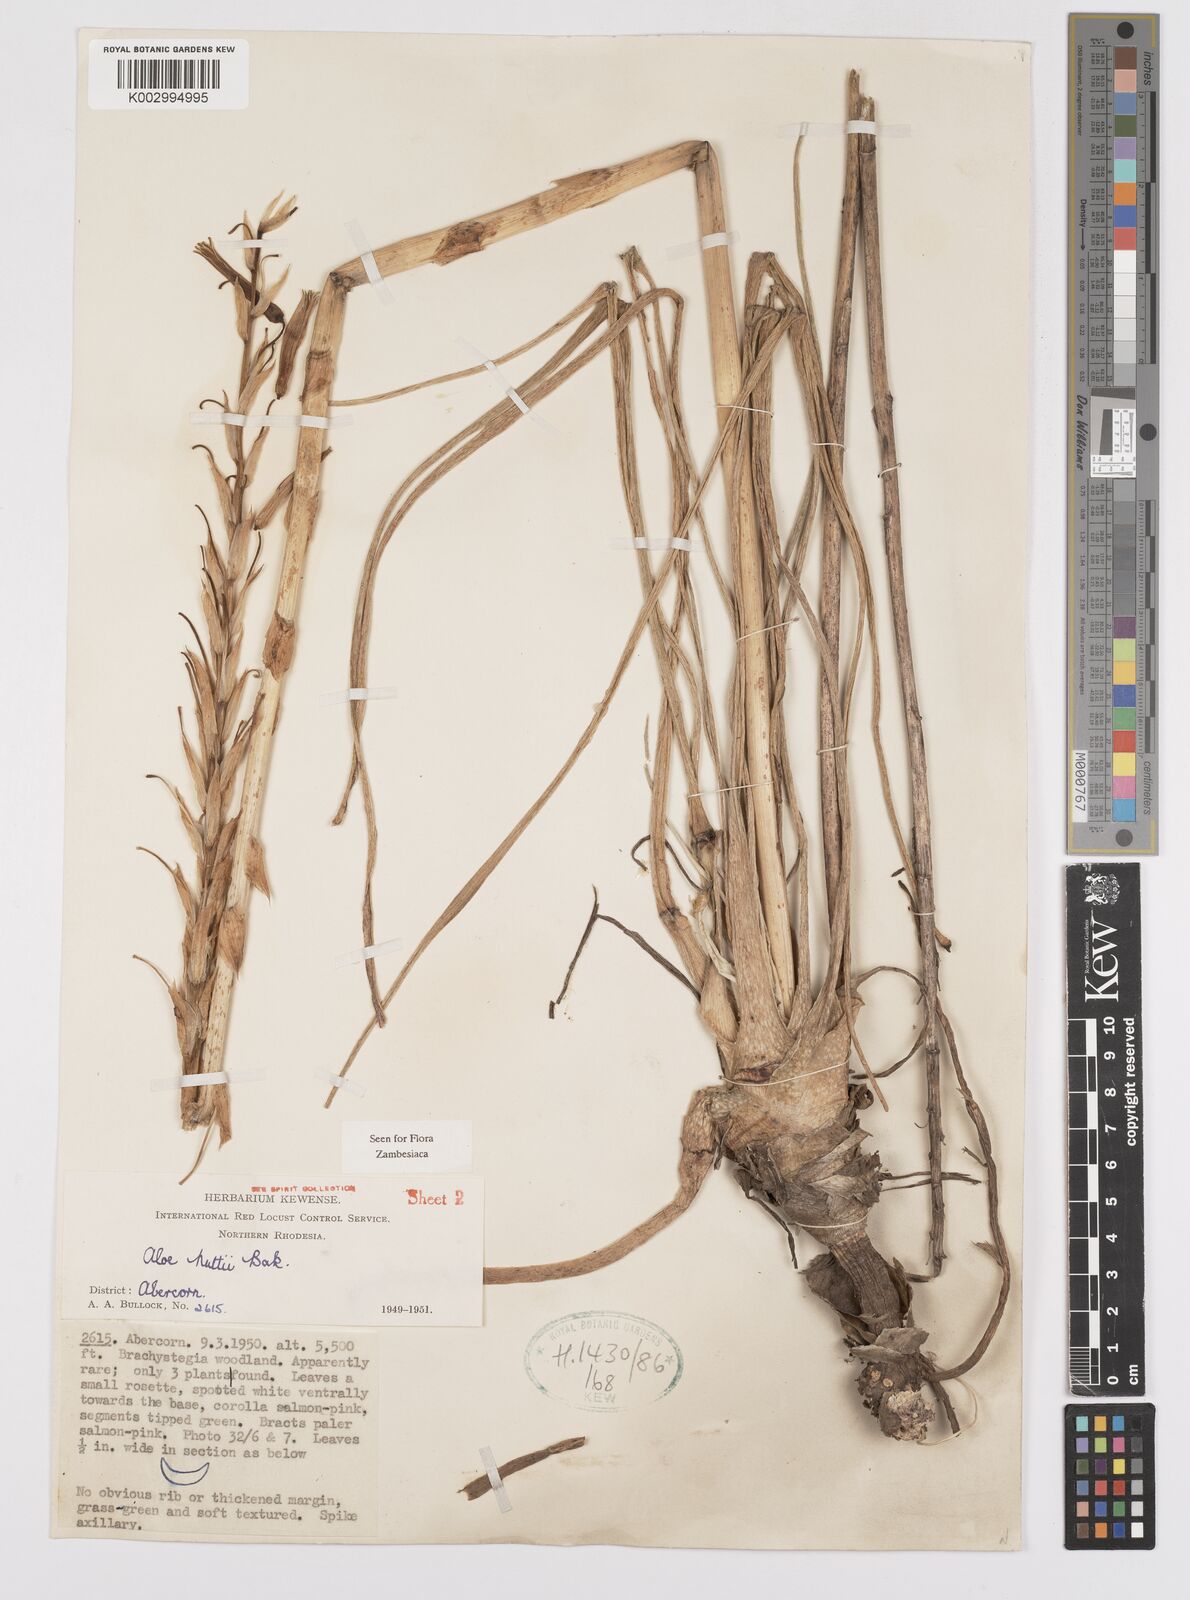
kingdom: Plantae
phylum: Tracheophyta
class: Liliopsida
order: Asparagales
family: Asphodelaceae
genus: Aloe
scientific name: Aloe nuttii
